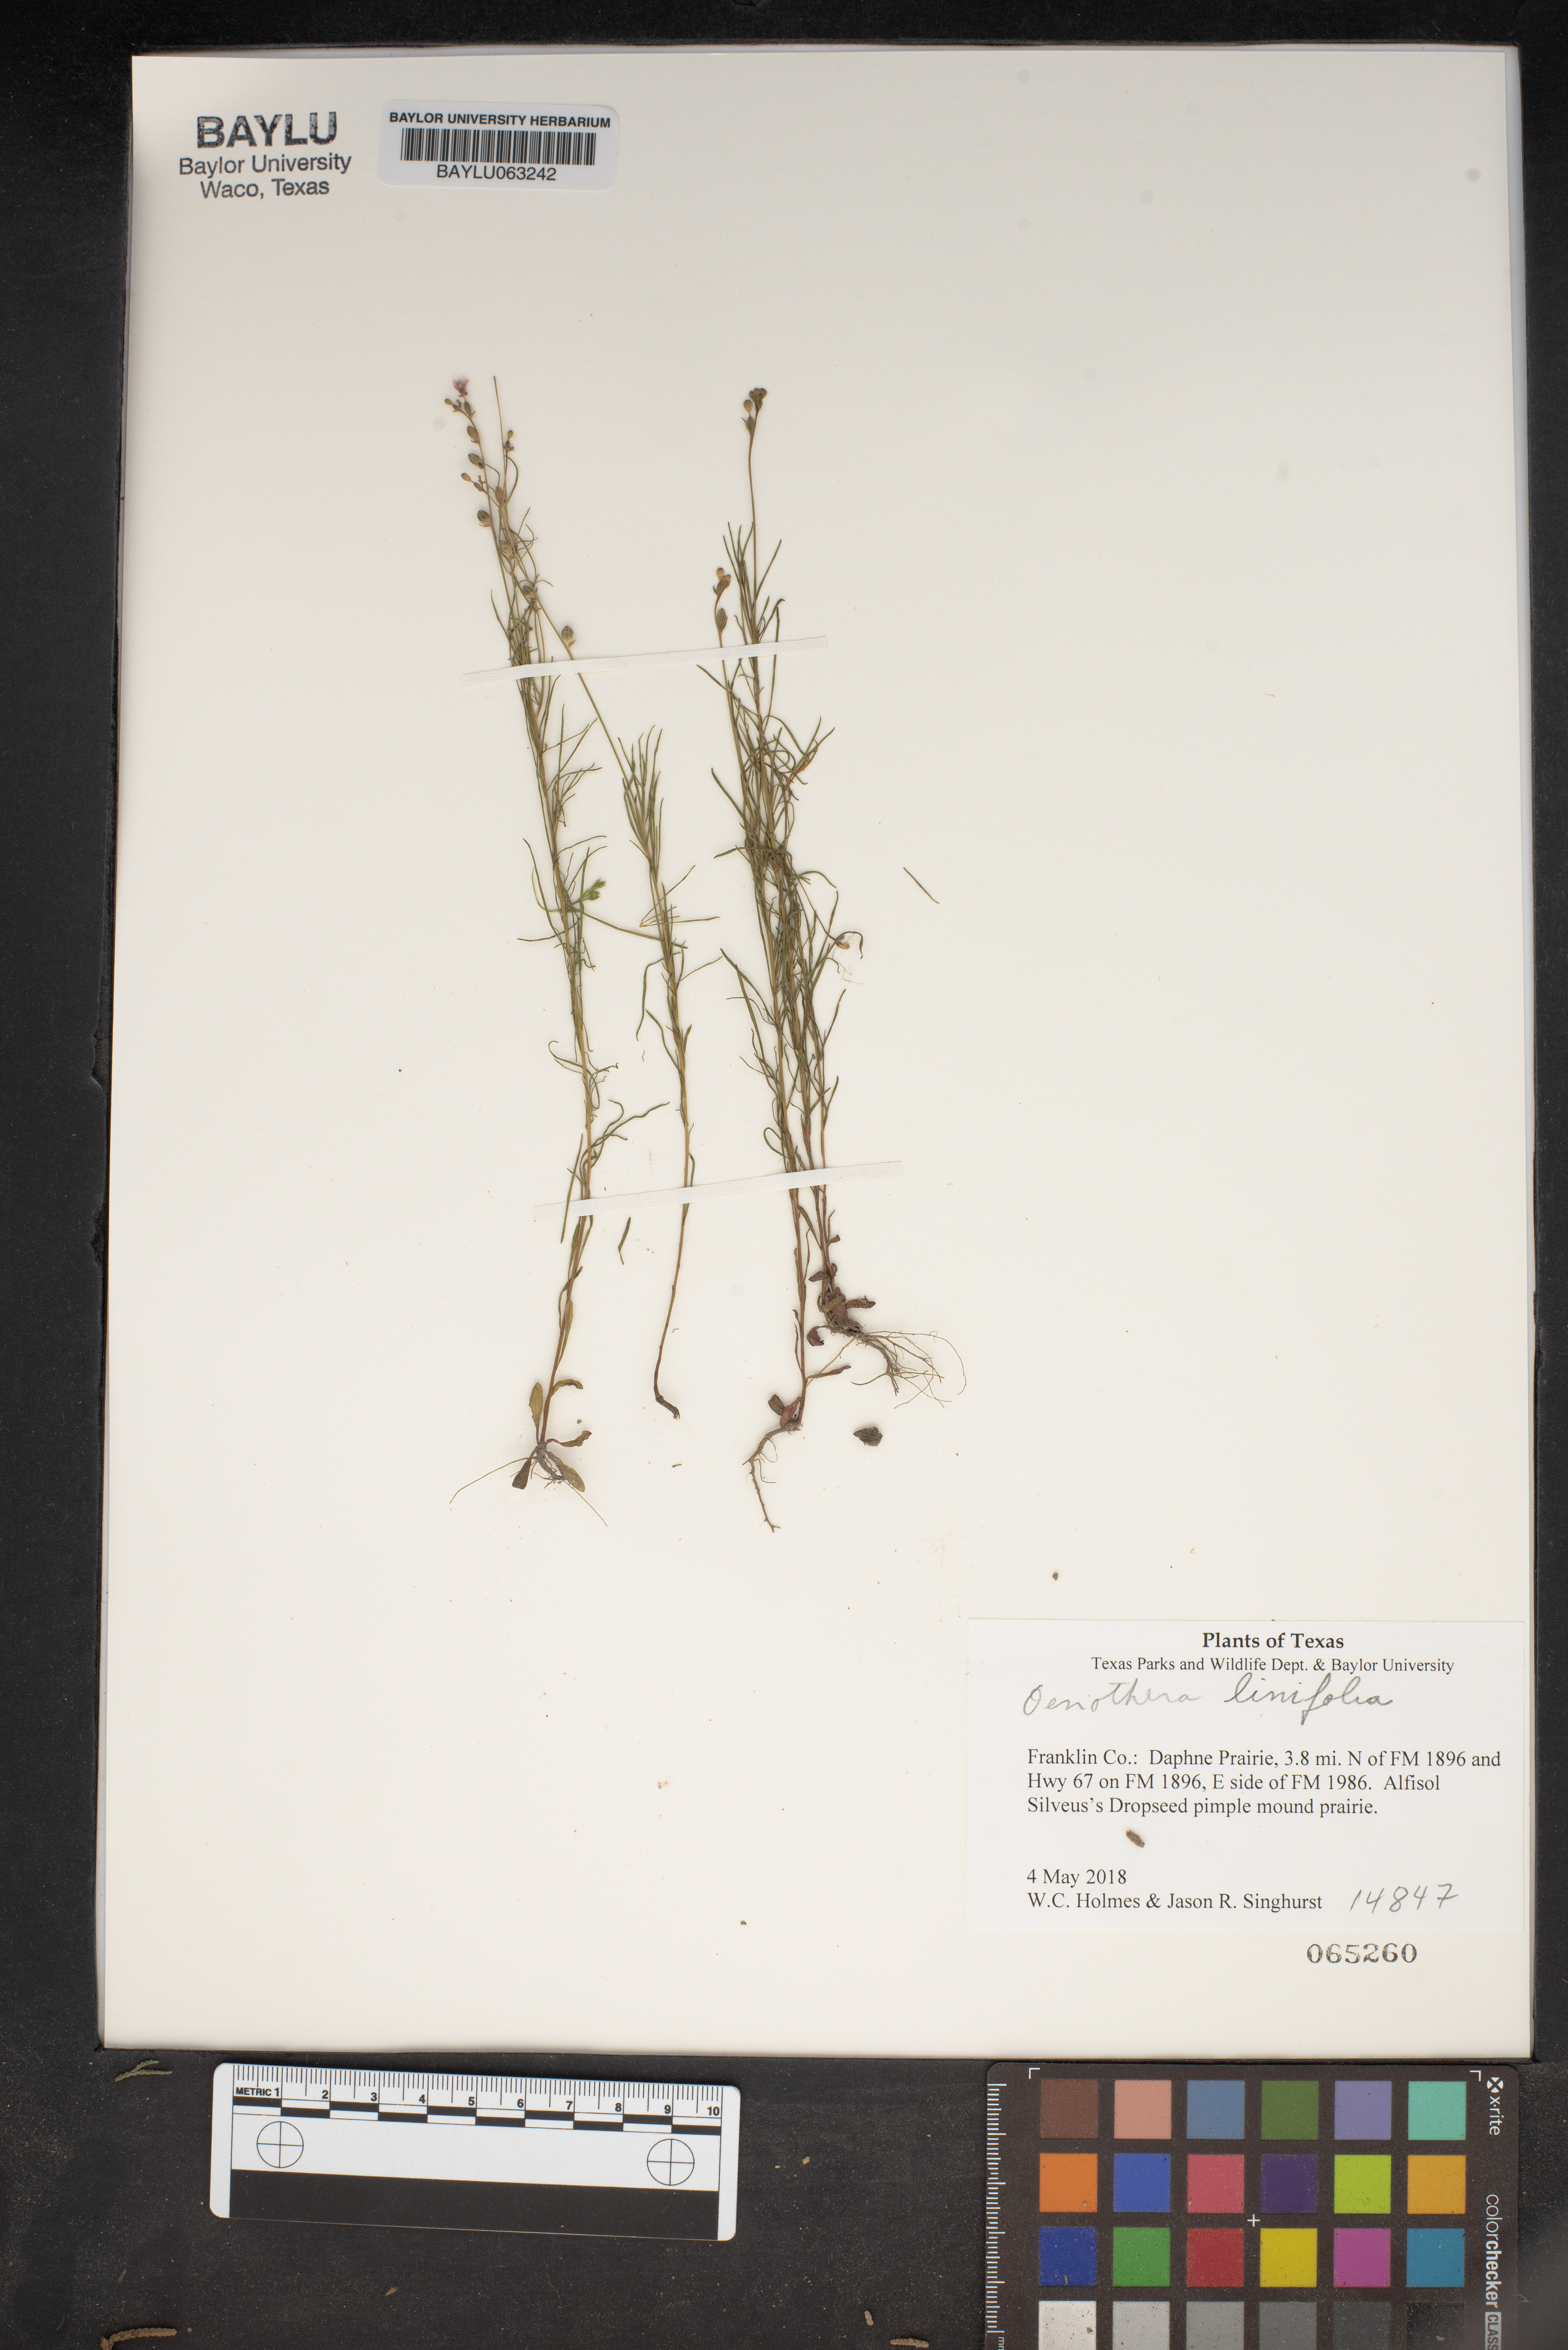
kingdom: Plantae
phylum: Tracheophyta
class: Magnoliopsida
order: Myrtales
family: Onagraceae
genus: Oenothera
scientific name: Oenothera linifolia
